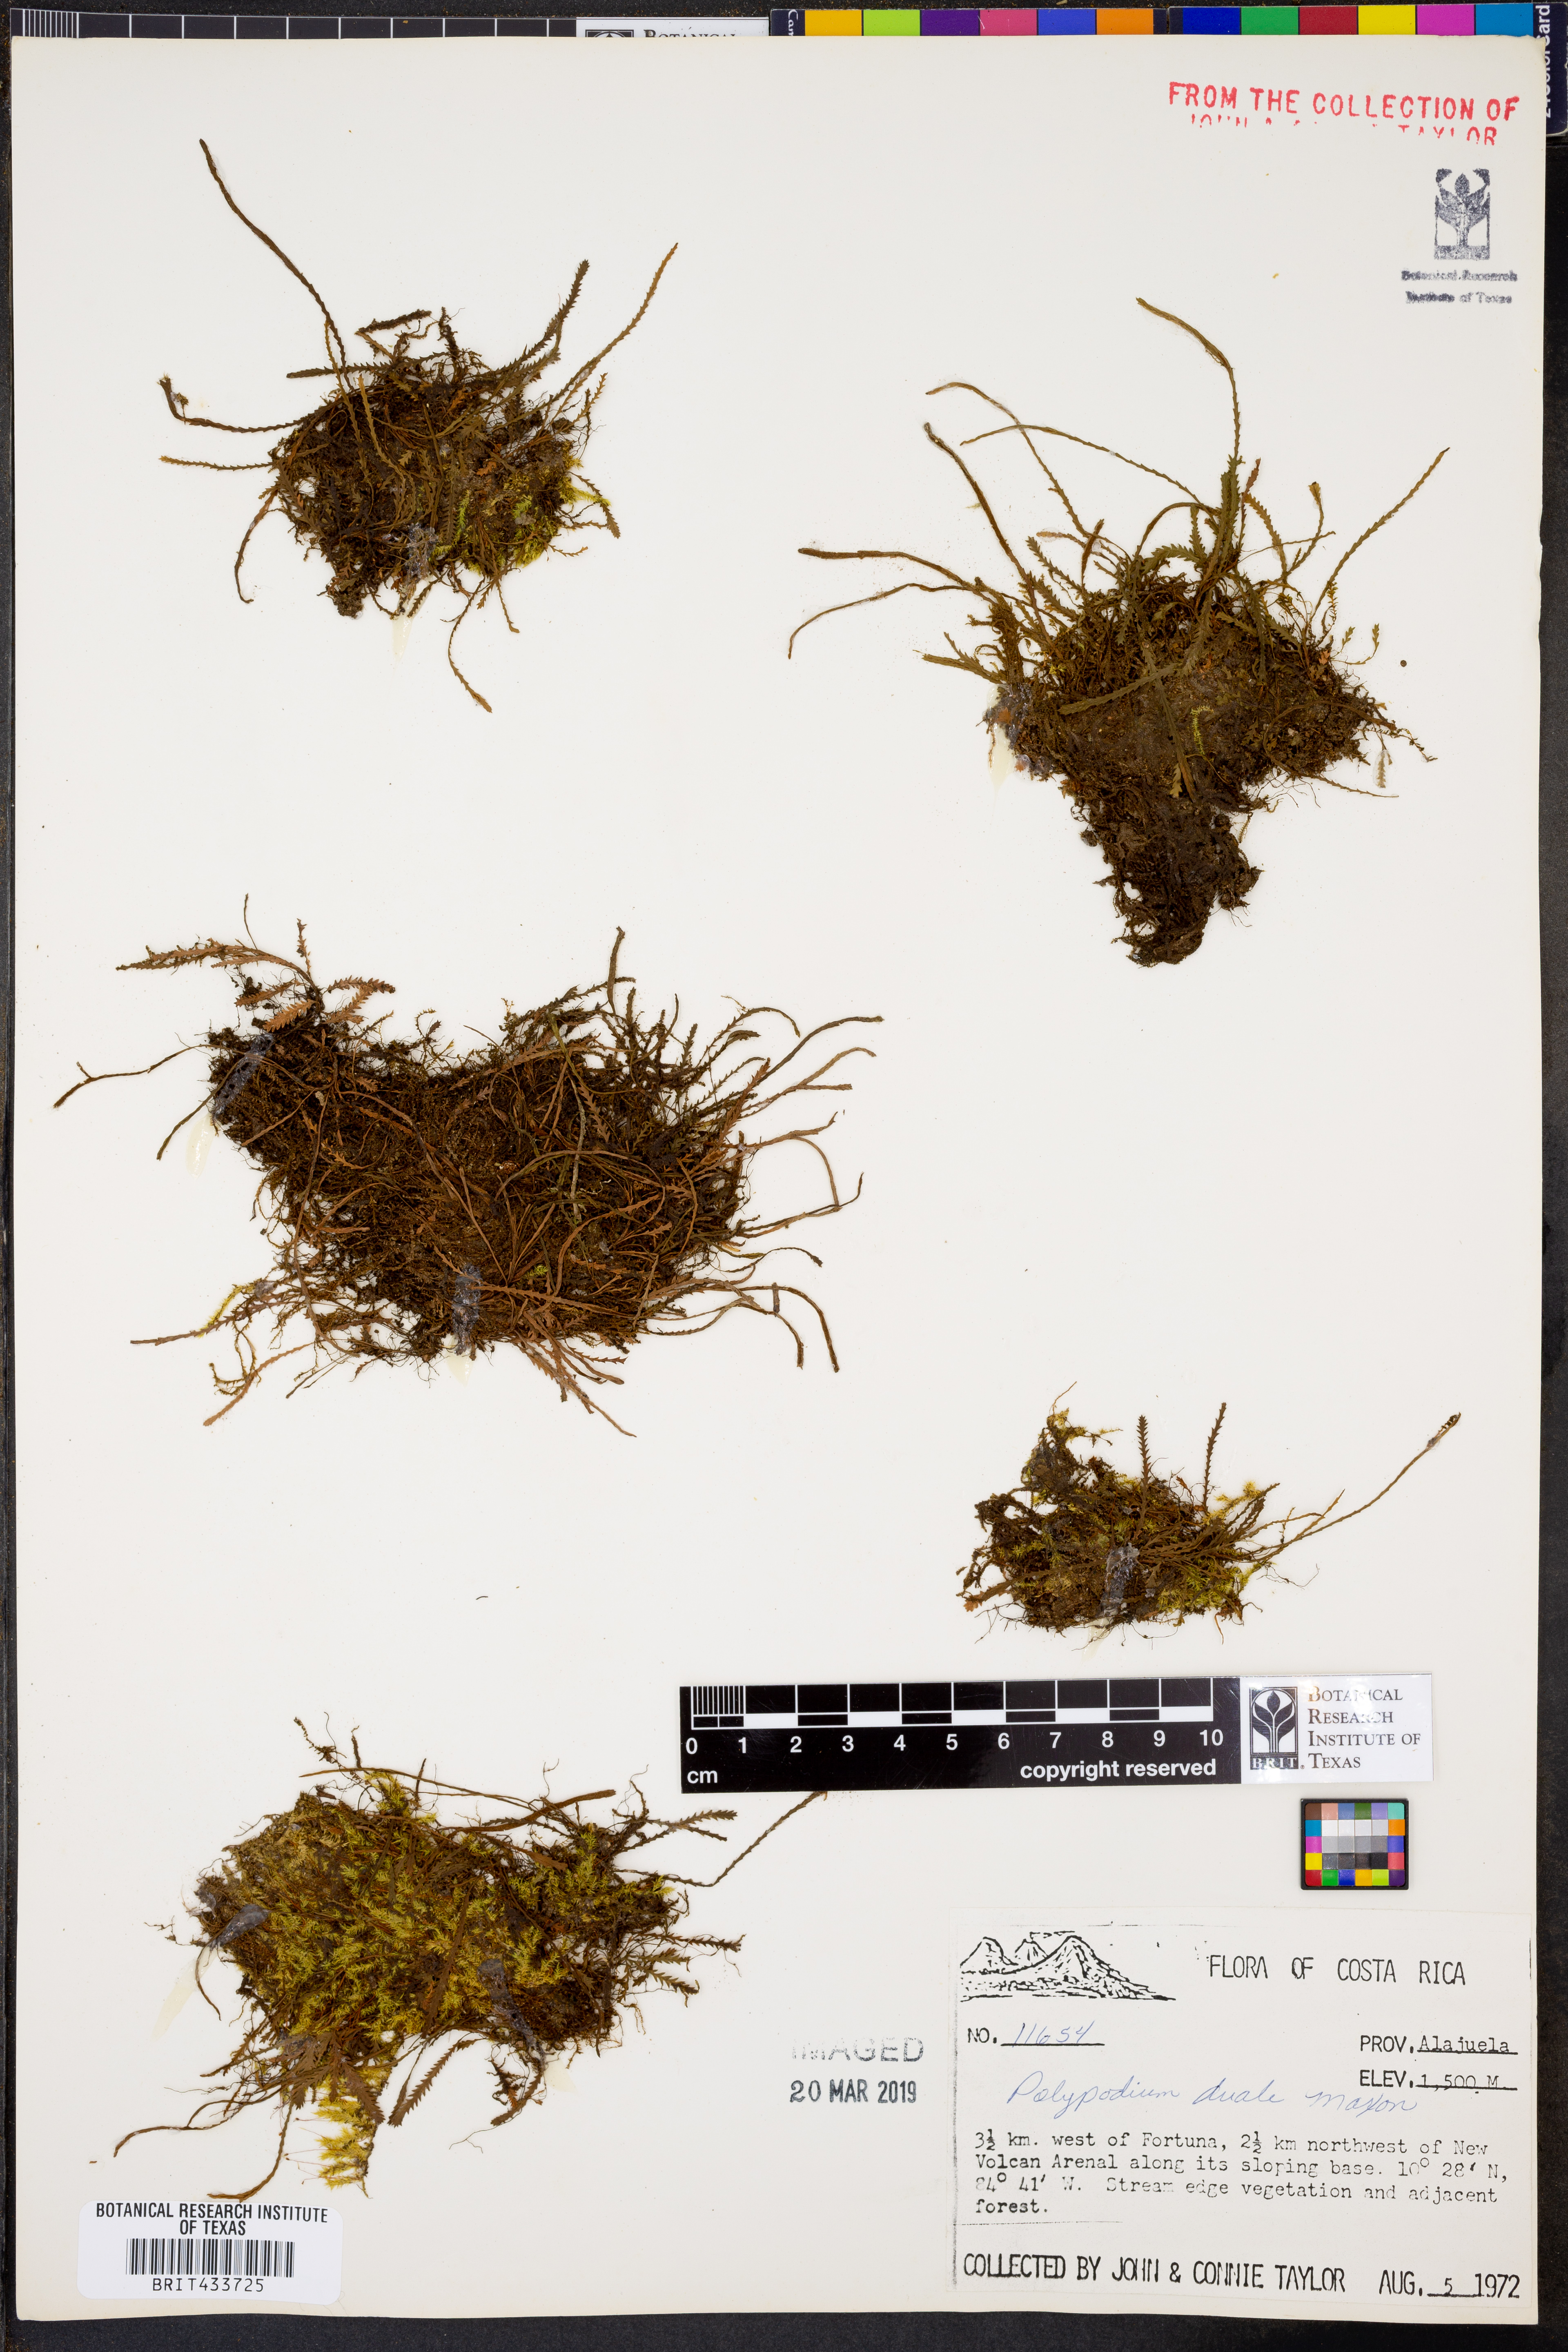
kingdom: Plantae
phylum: Tracheophyta
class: Polypodiopsida
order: Polypodiales
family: Polypodiaceae
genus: Cochlidium
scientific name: Cochlidium serrulatum
